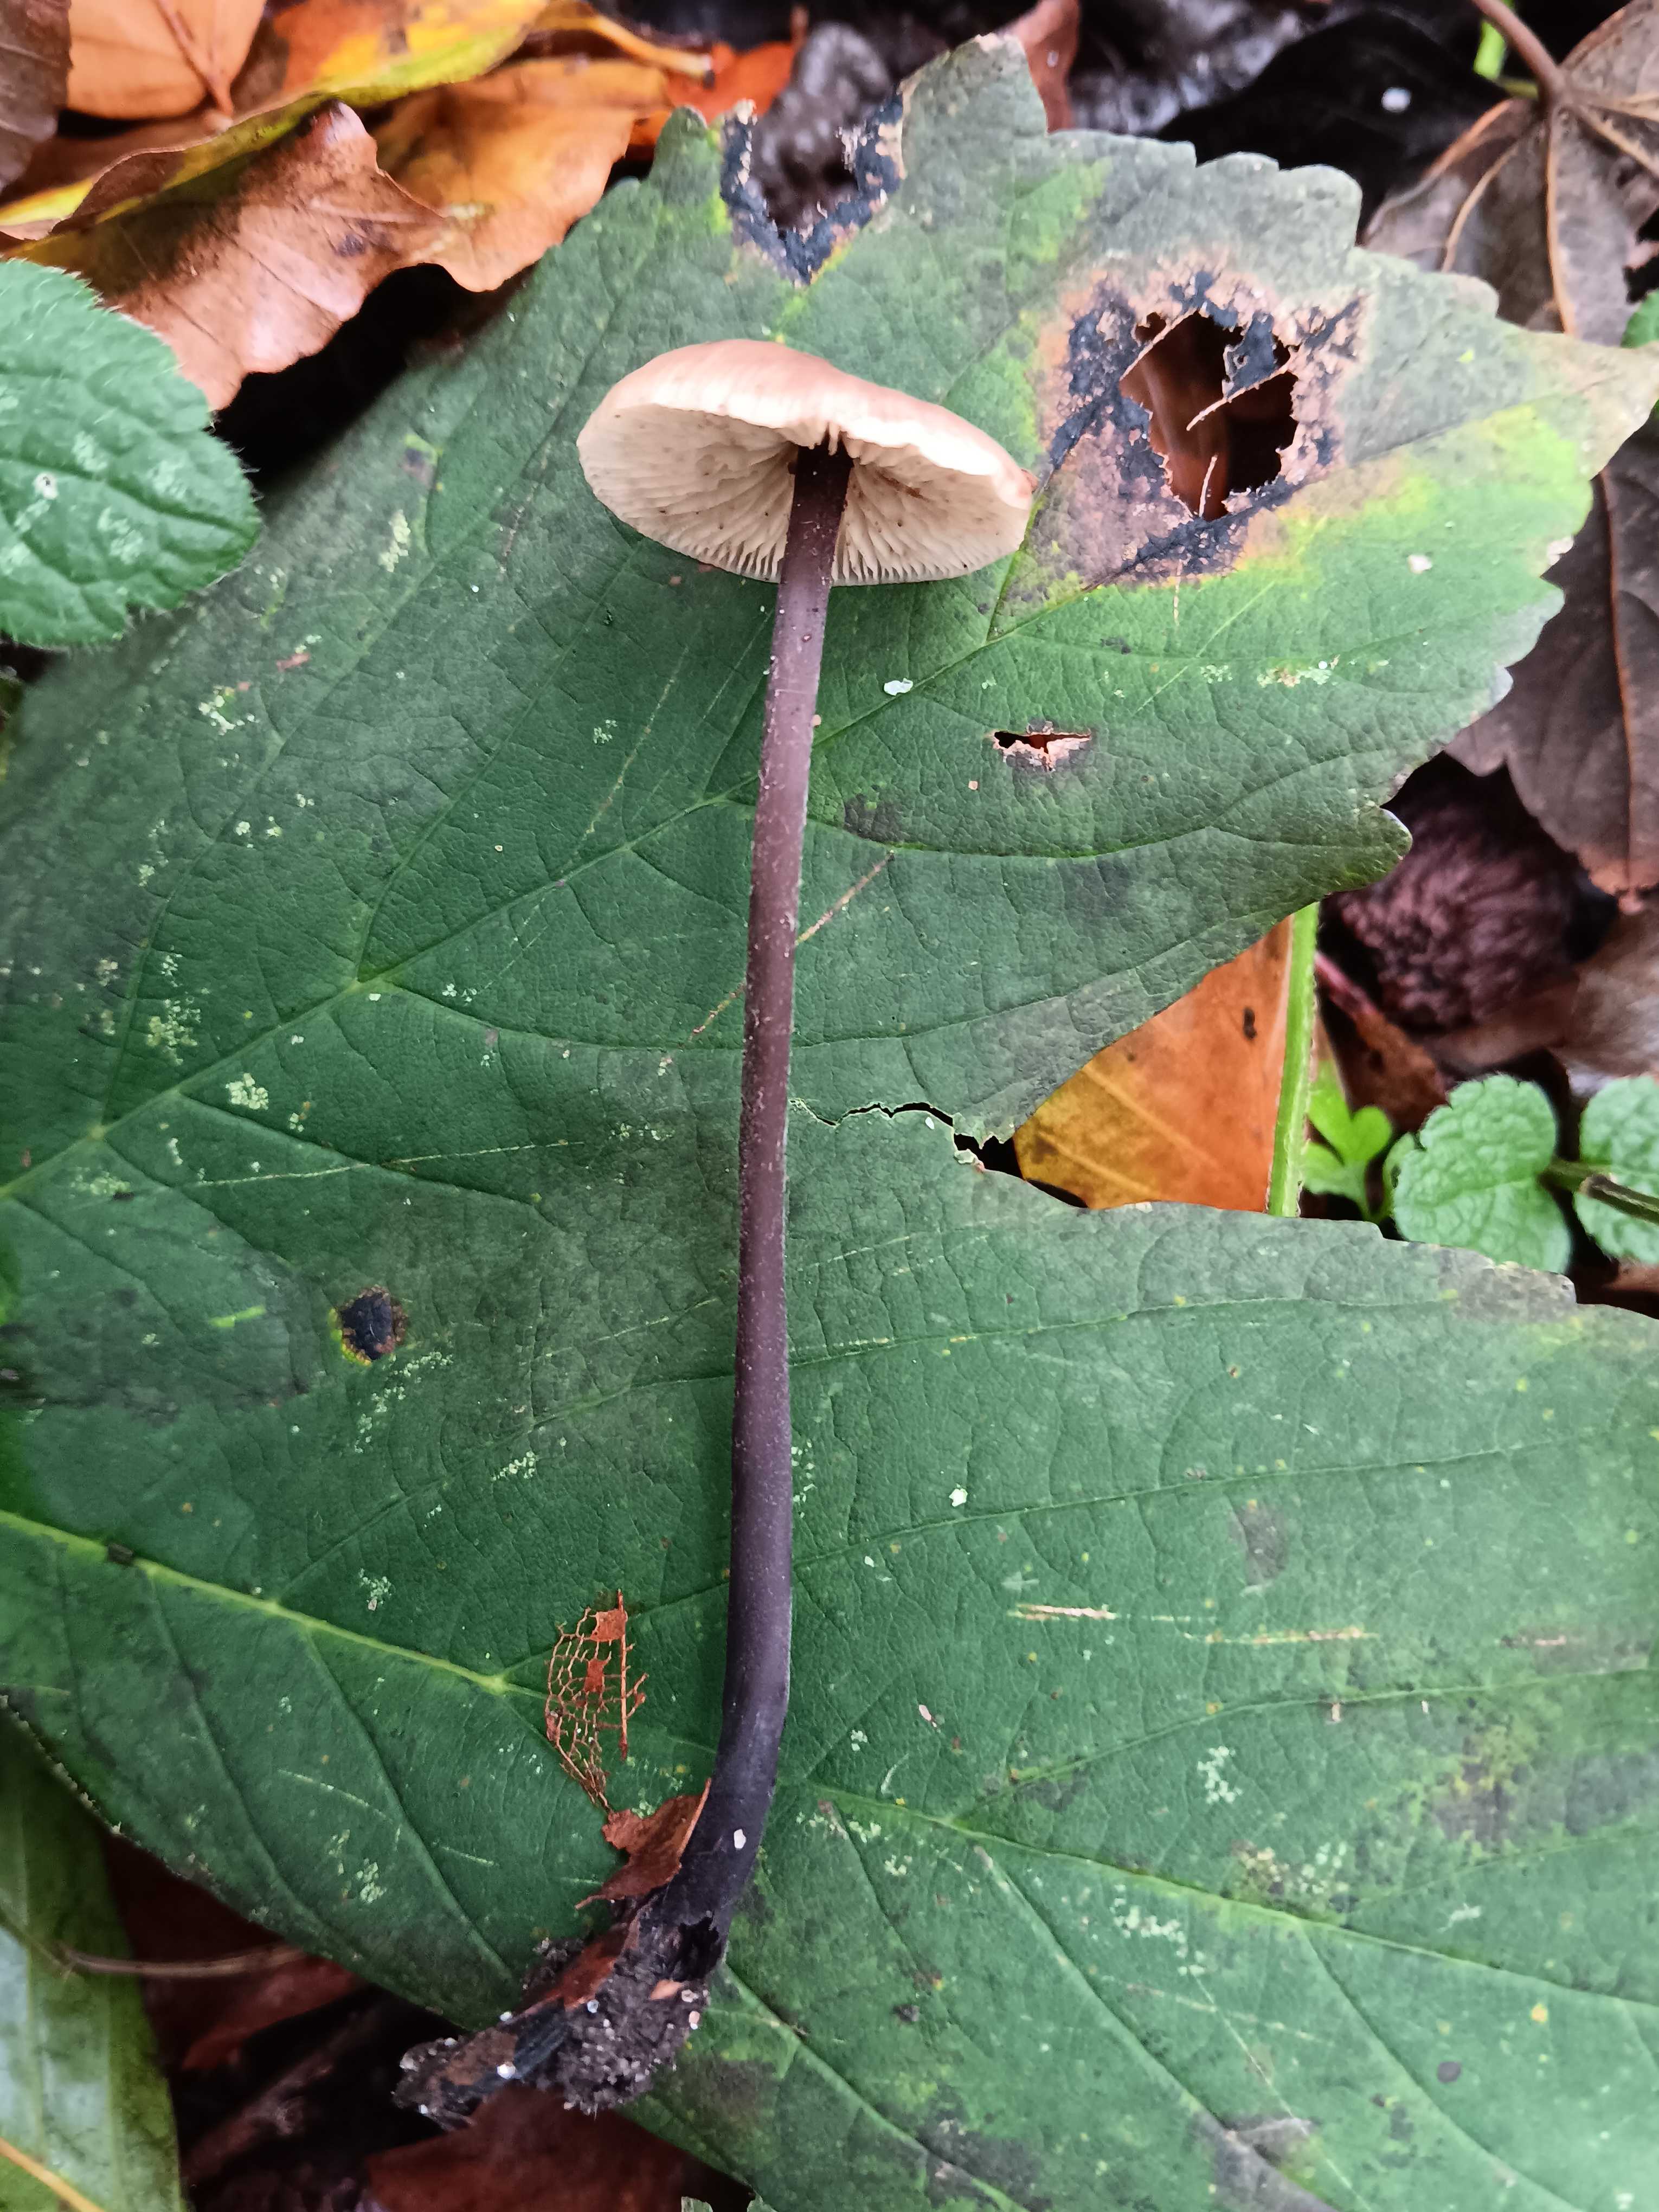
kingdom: Fungi
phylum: Basidiomycota
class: Agaricomycetes
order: Agaricales
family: Omphalotaceae
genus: Mycetinis
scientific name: Mycetinis alliaceus
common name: stor løghat
